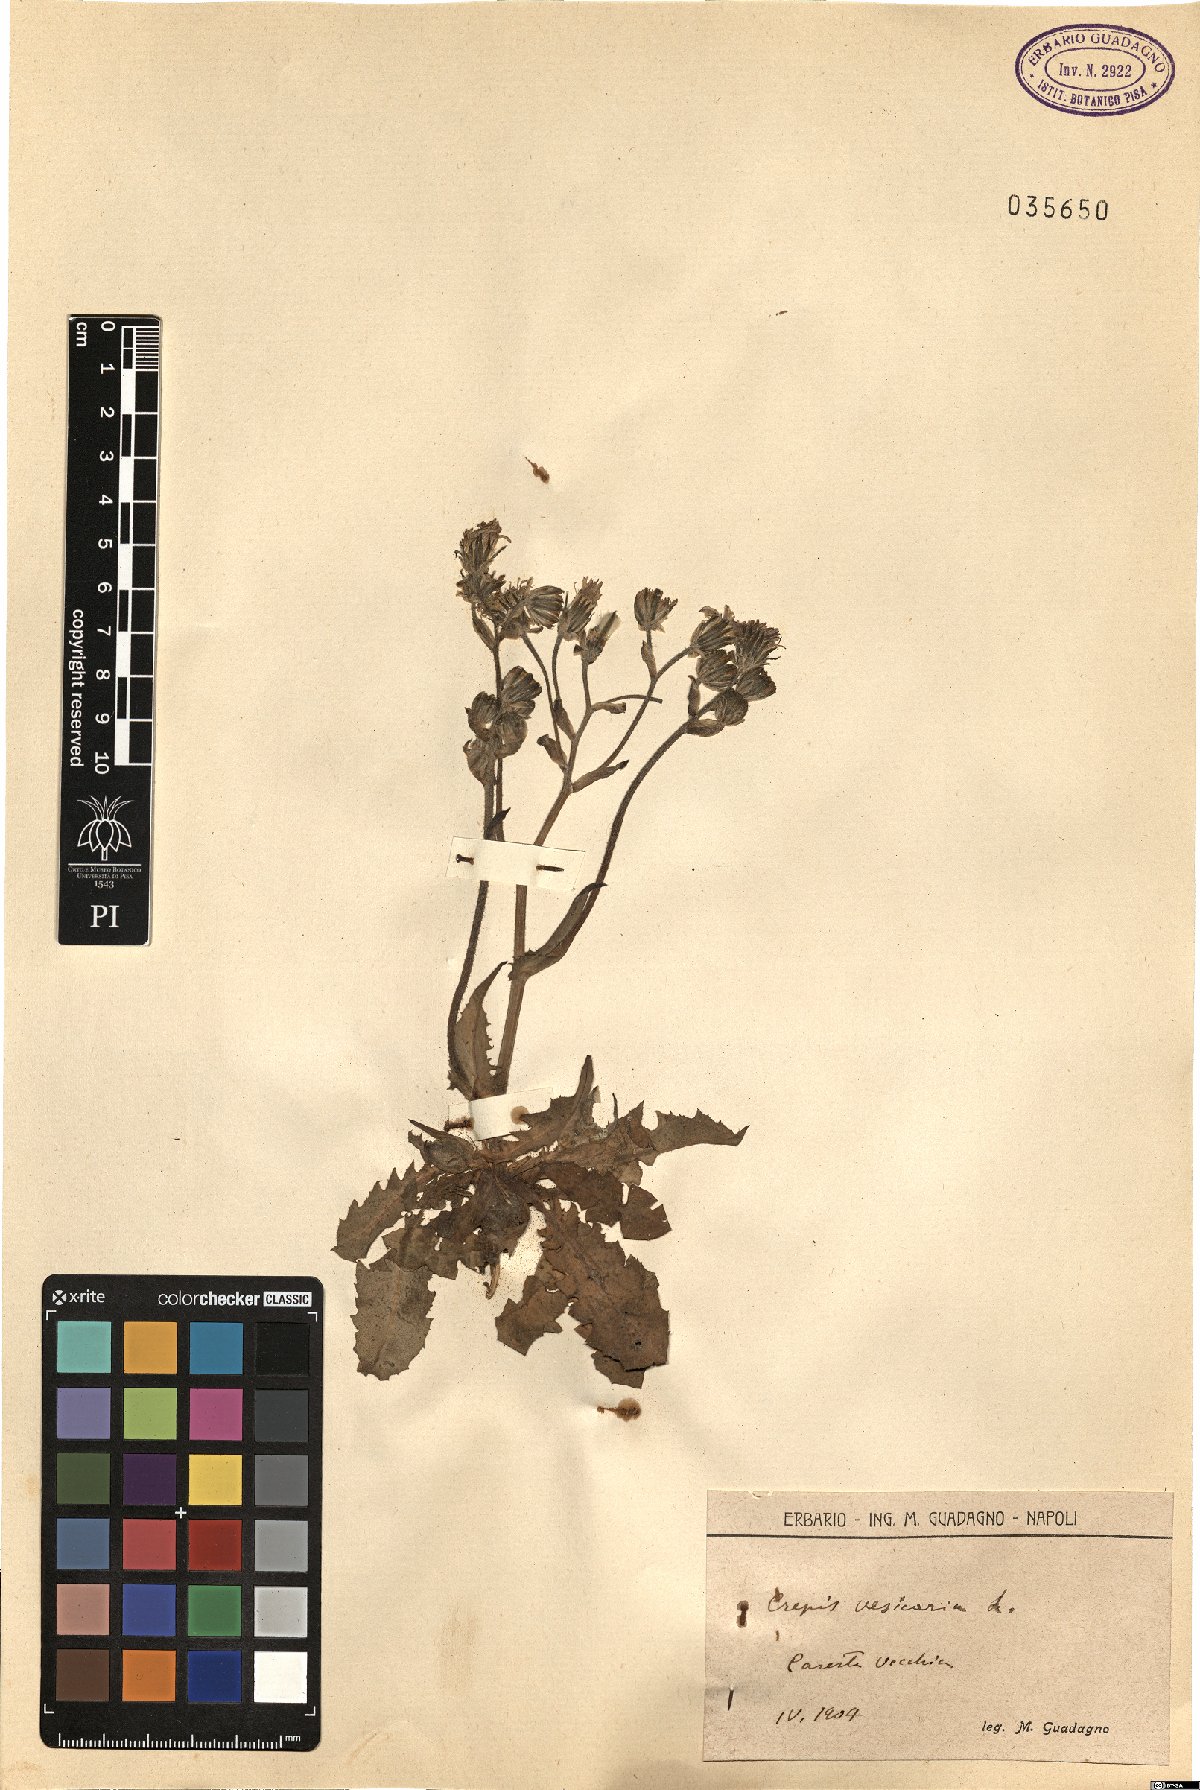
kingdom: Plantae
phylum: Tracheophyta
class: Magnoliopsida
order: Asterales
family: Asteraceae
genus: Crepis
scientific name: Crepis vesicaria
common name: Beaked hawksbeard
